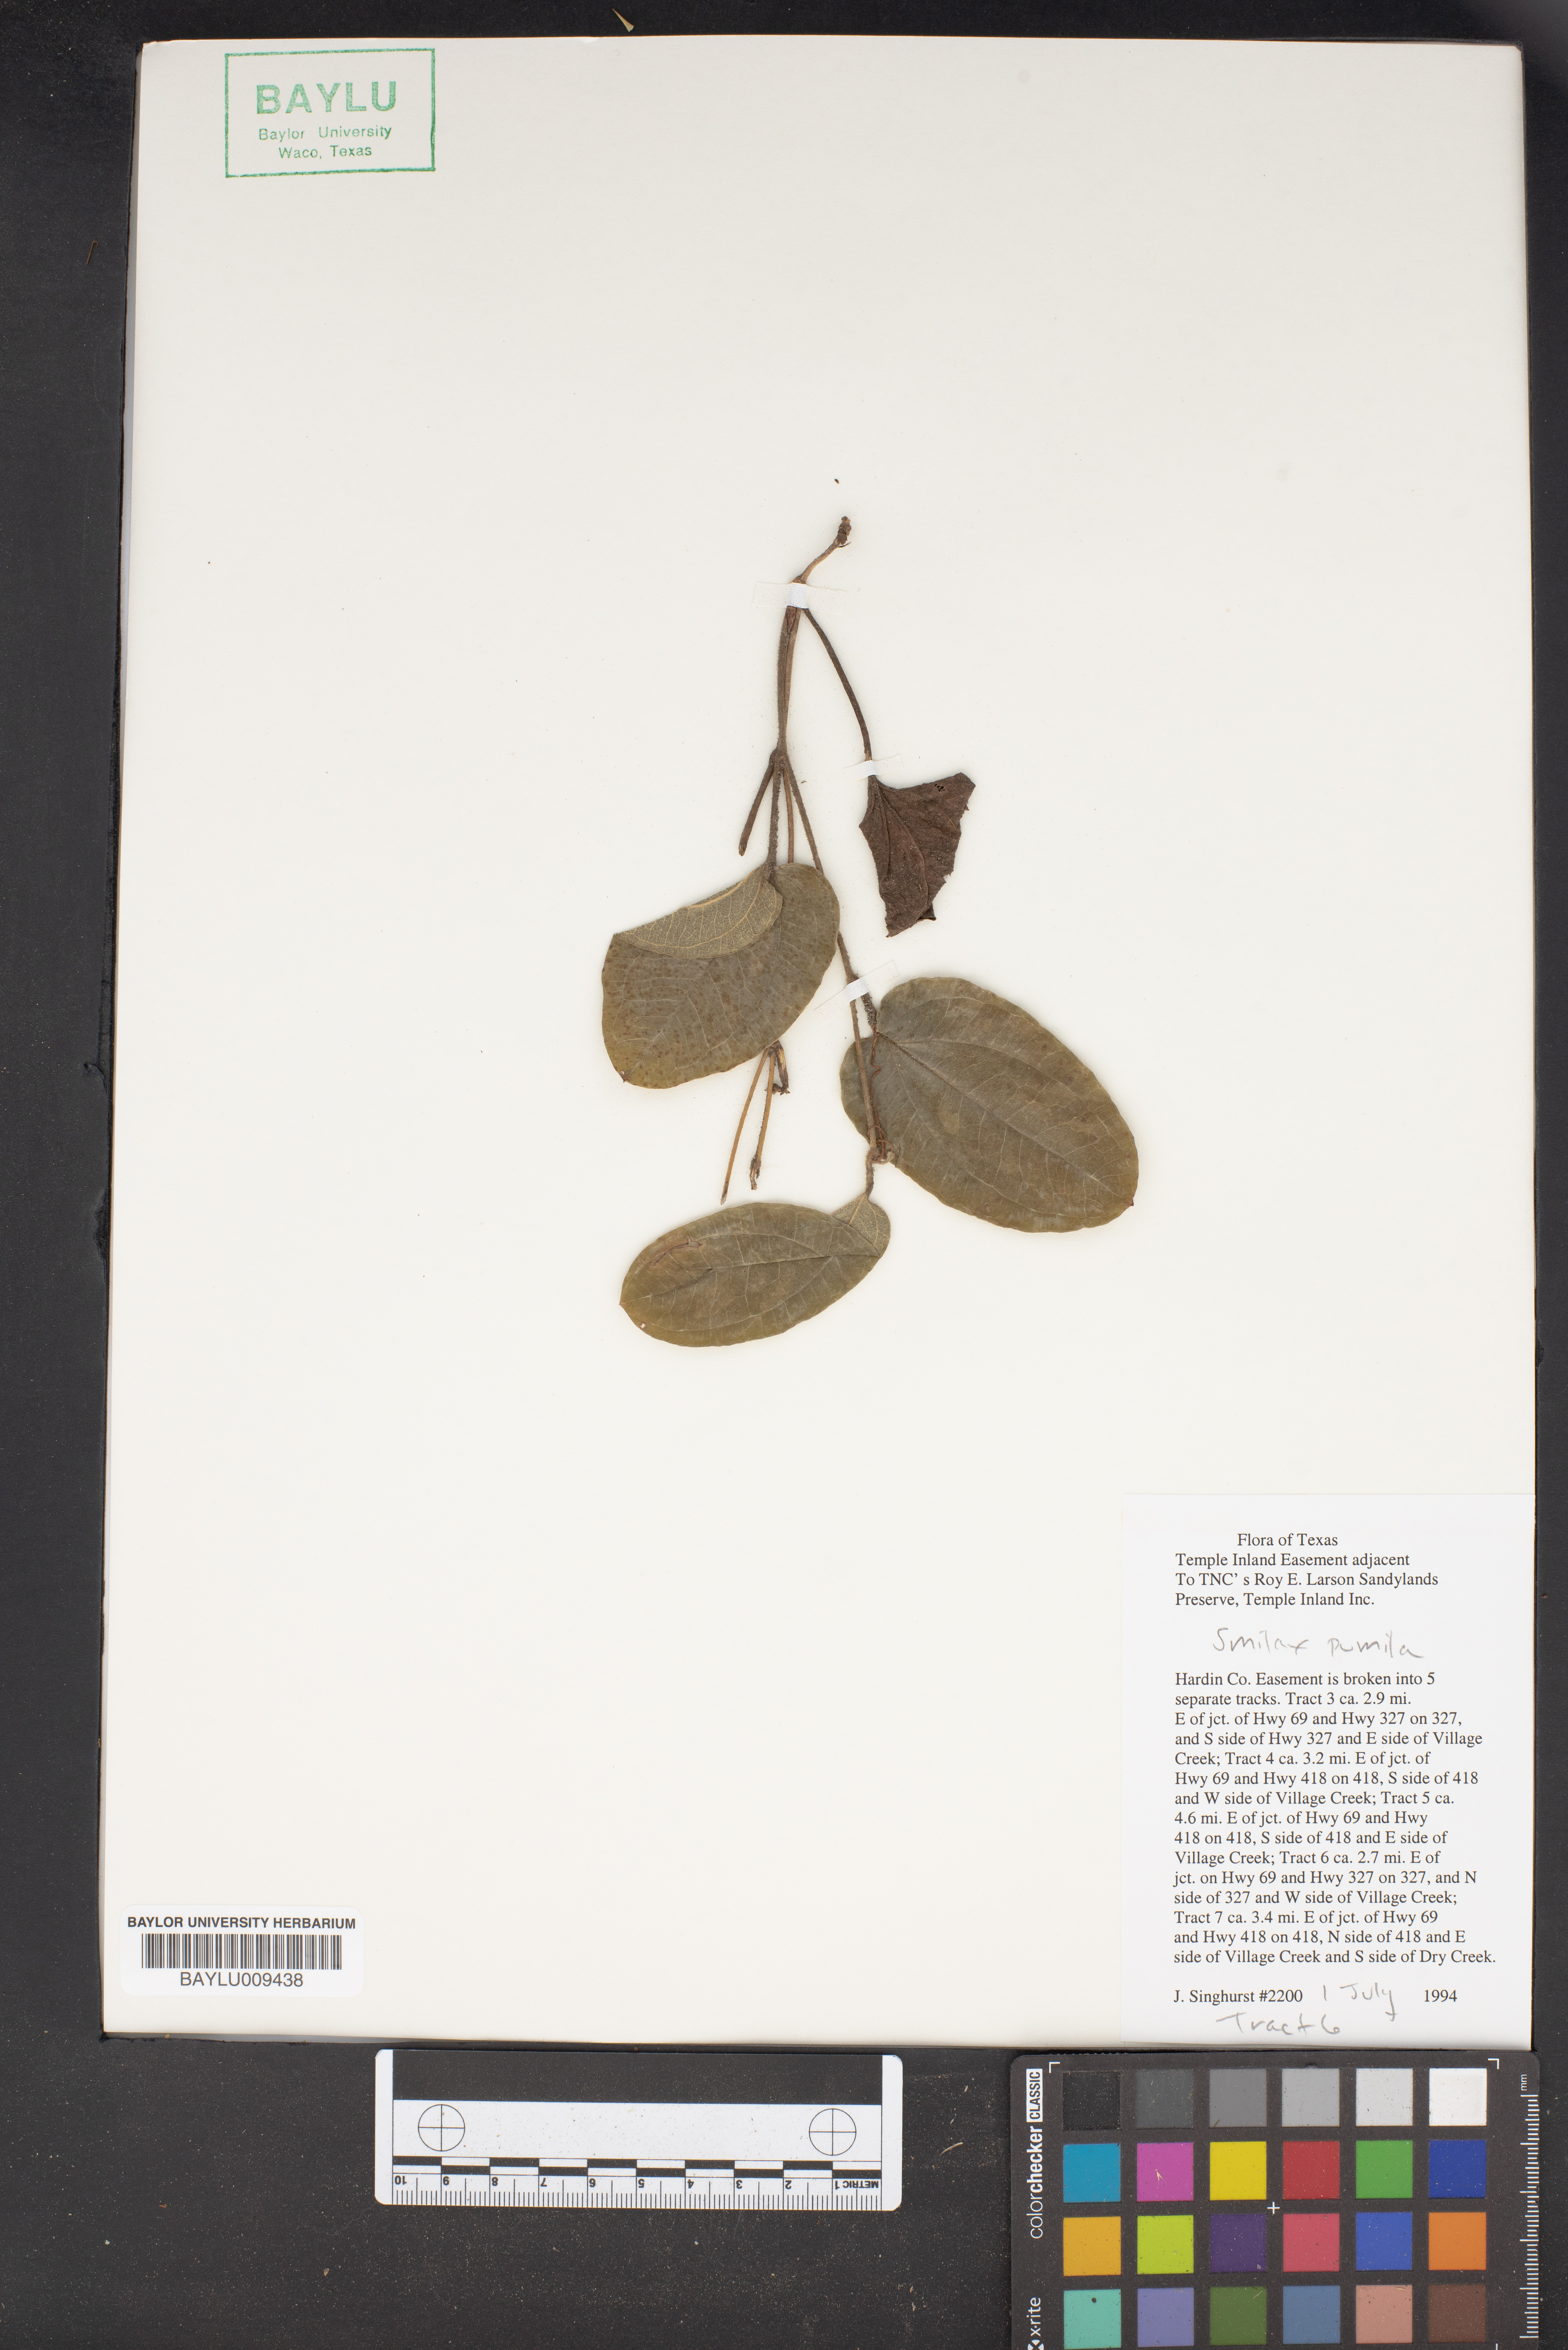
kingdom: Plantae
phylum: Tracheophyta
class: Liliopsida
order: Liliales
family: Smilacaceae
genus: Smilax
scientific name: Smilax pumila
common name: Sarsaparilla-vine
